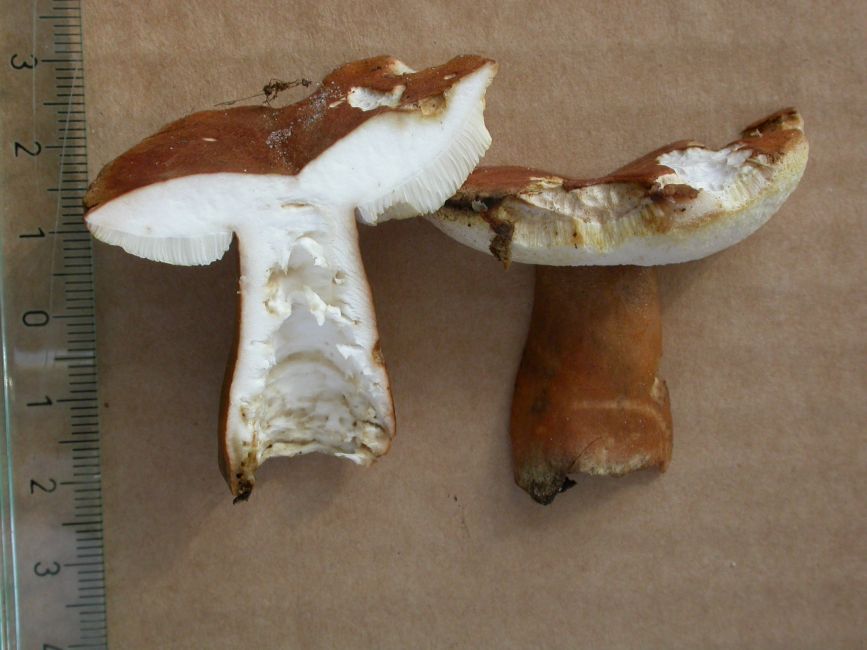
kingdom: Fungi
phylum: Basidiomycota
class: Agaricomycetes
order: Boletales
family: Gyroporaceae
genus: Gyroporus
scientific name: Gyroporus castaneus
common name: kastanie-kammerrørhat
